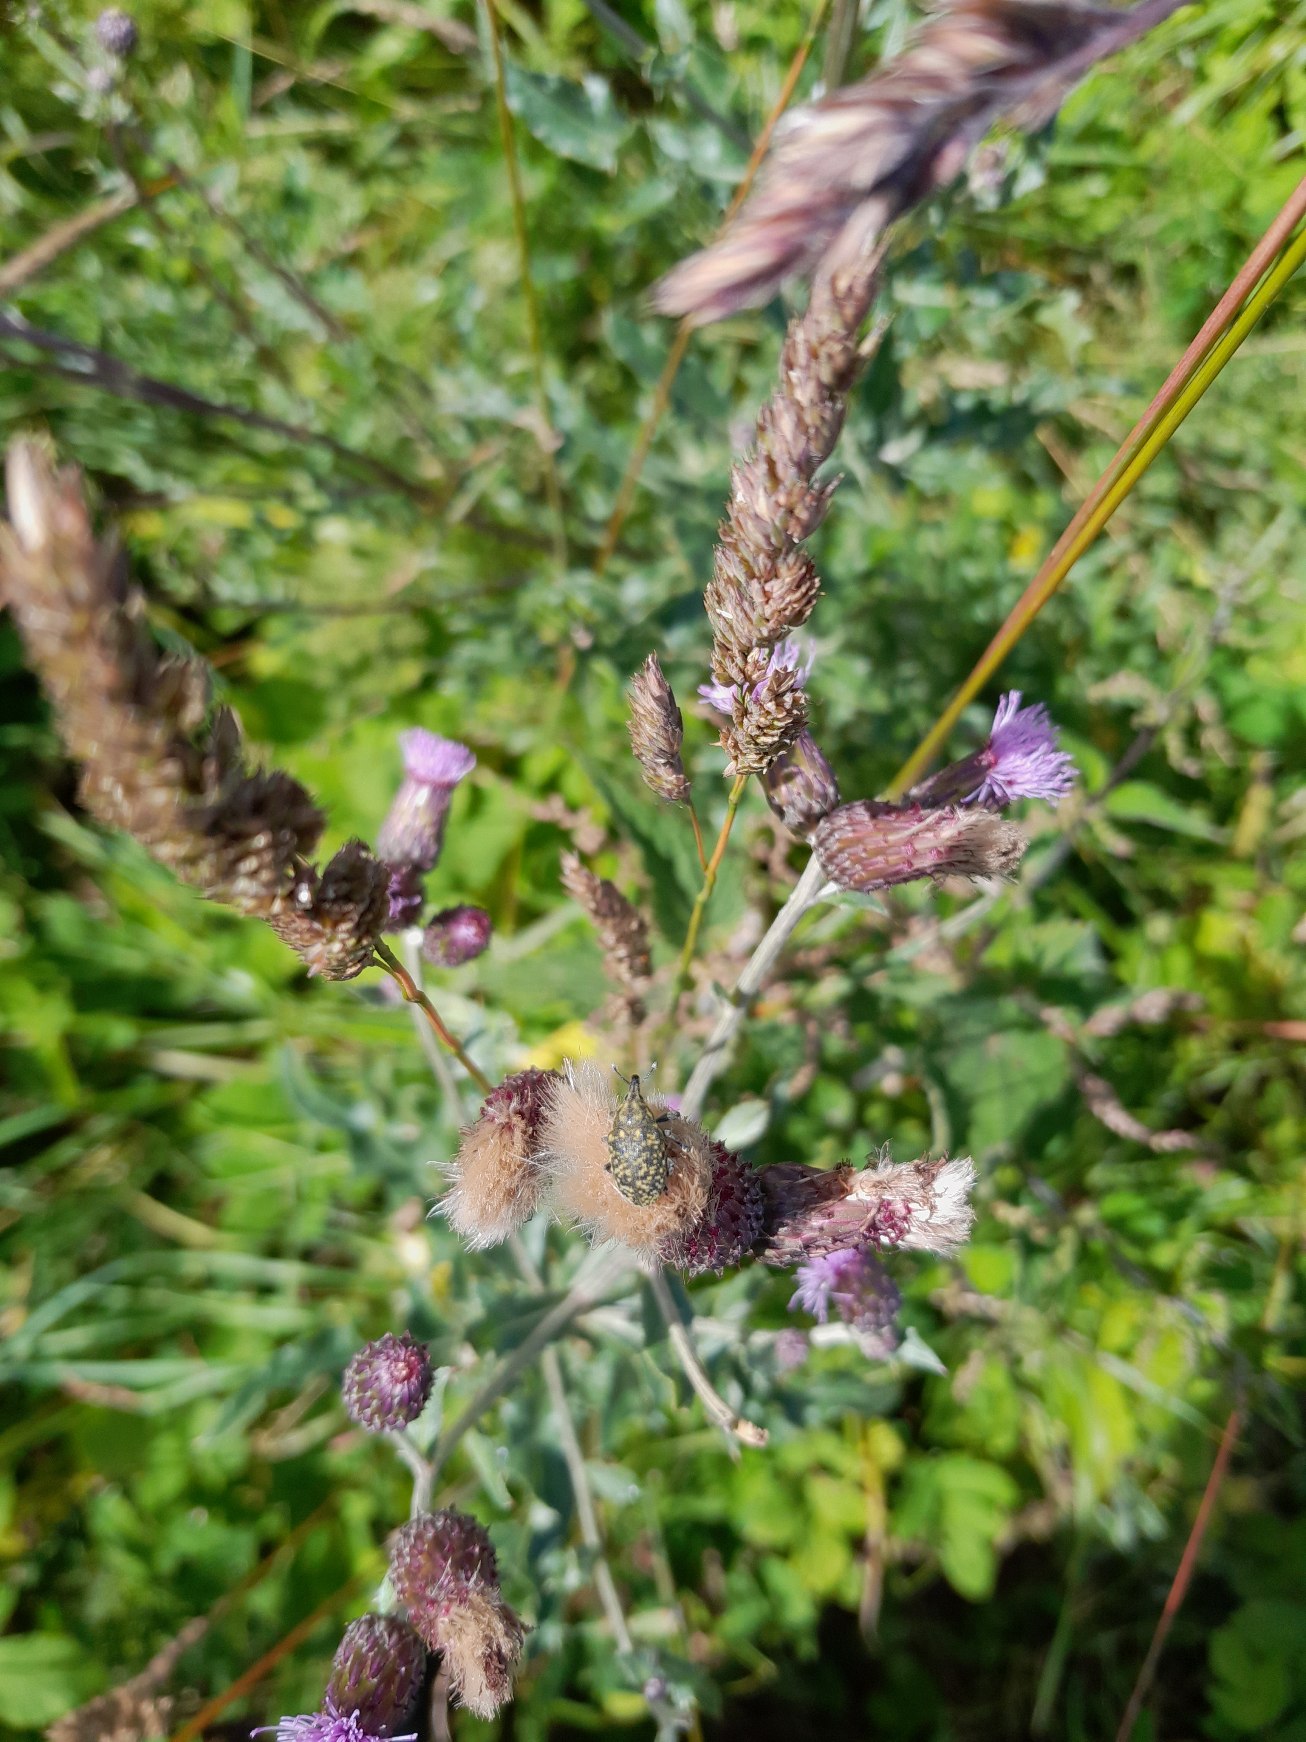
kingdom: Animalia
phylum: Arthropoda
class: Insecta
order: Coleoptera
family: Curculionidae
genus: Larinus
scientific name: Larinus turbinatus
